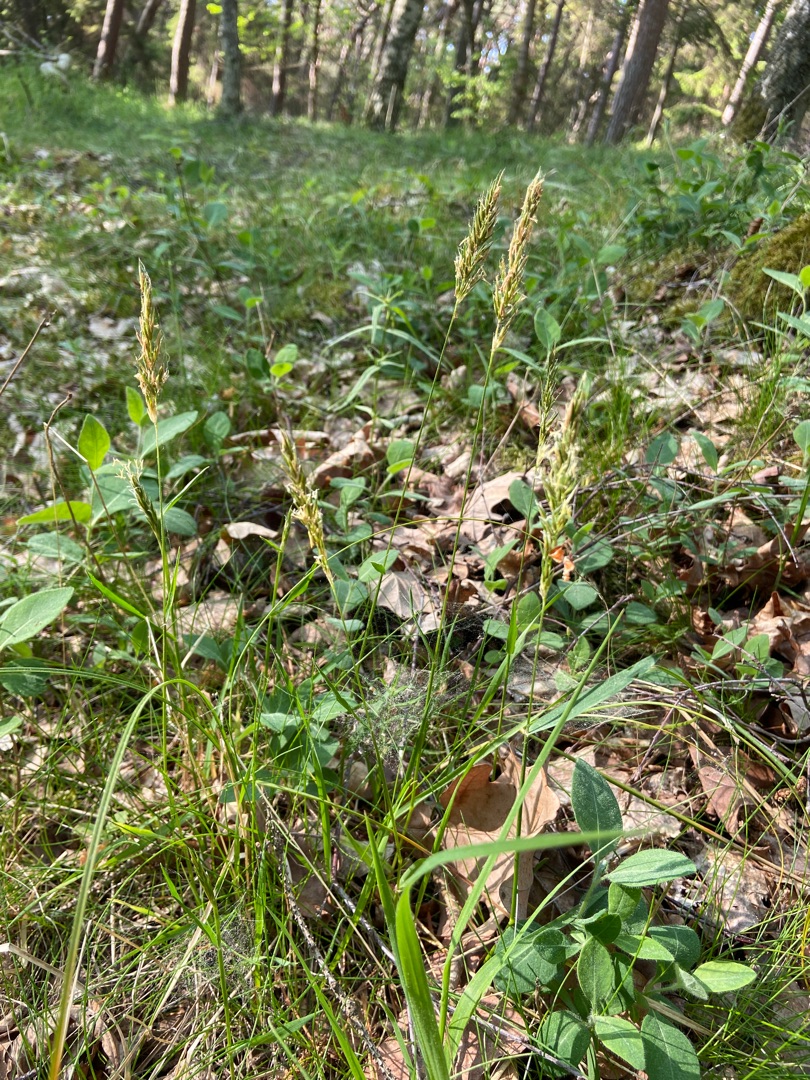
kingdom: Plantae
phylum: Tracheophyta
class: Liliopsida
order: Poales
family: Poaceae
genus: Anthoxanthum
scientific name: Anthoxanthum odoratum
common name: Vellugtende gulaks
